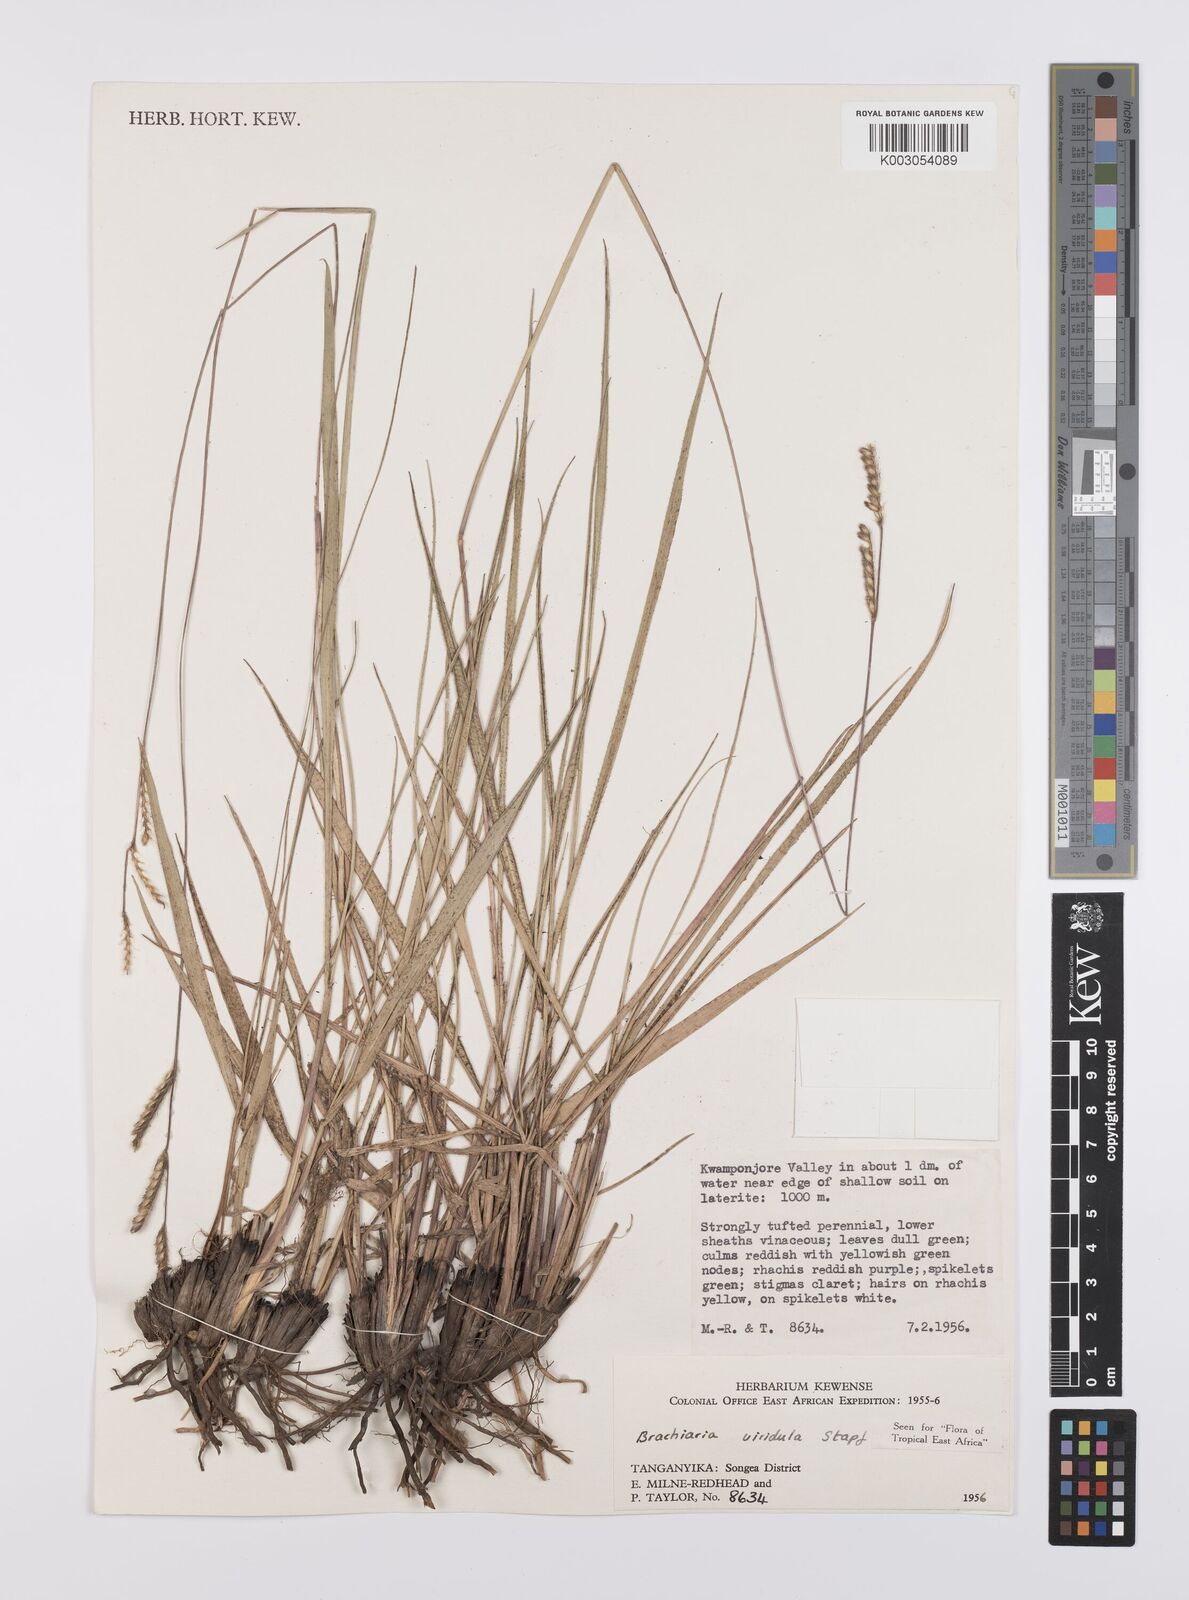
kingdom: Plantae
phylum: Tracheophyta
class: Liliopsida
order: Poales
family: Poaceae
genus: Urochloa
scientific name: Urochloa jubata
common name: Buffalograss
